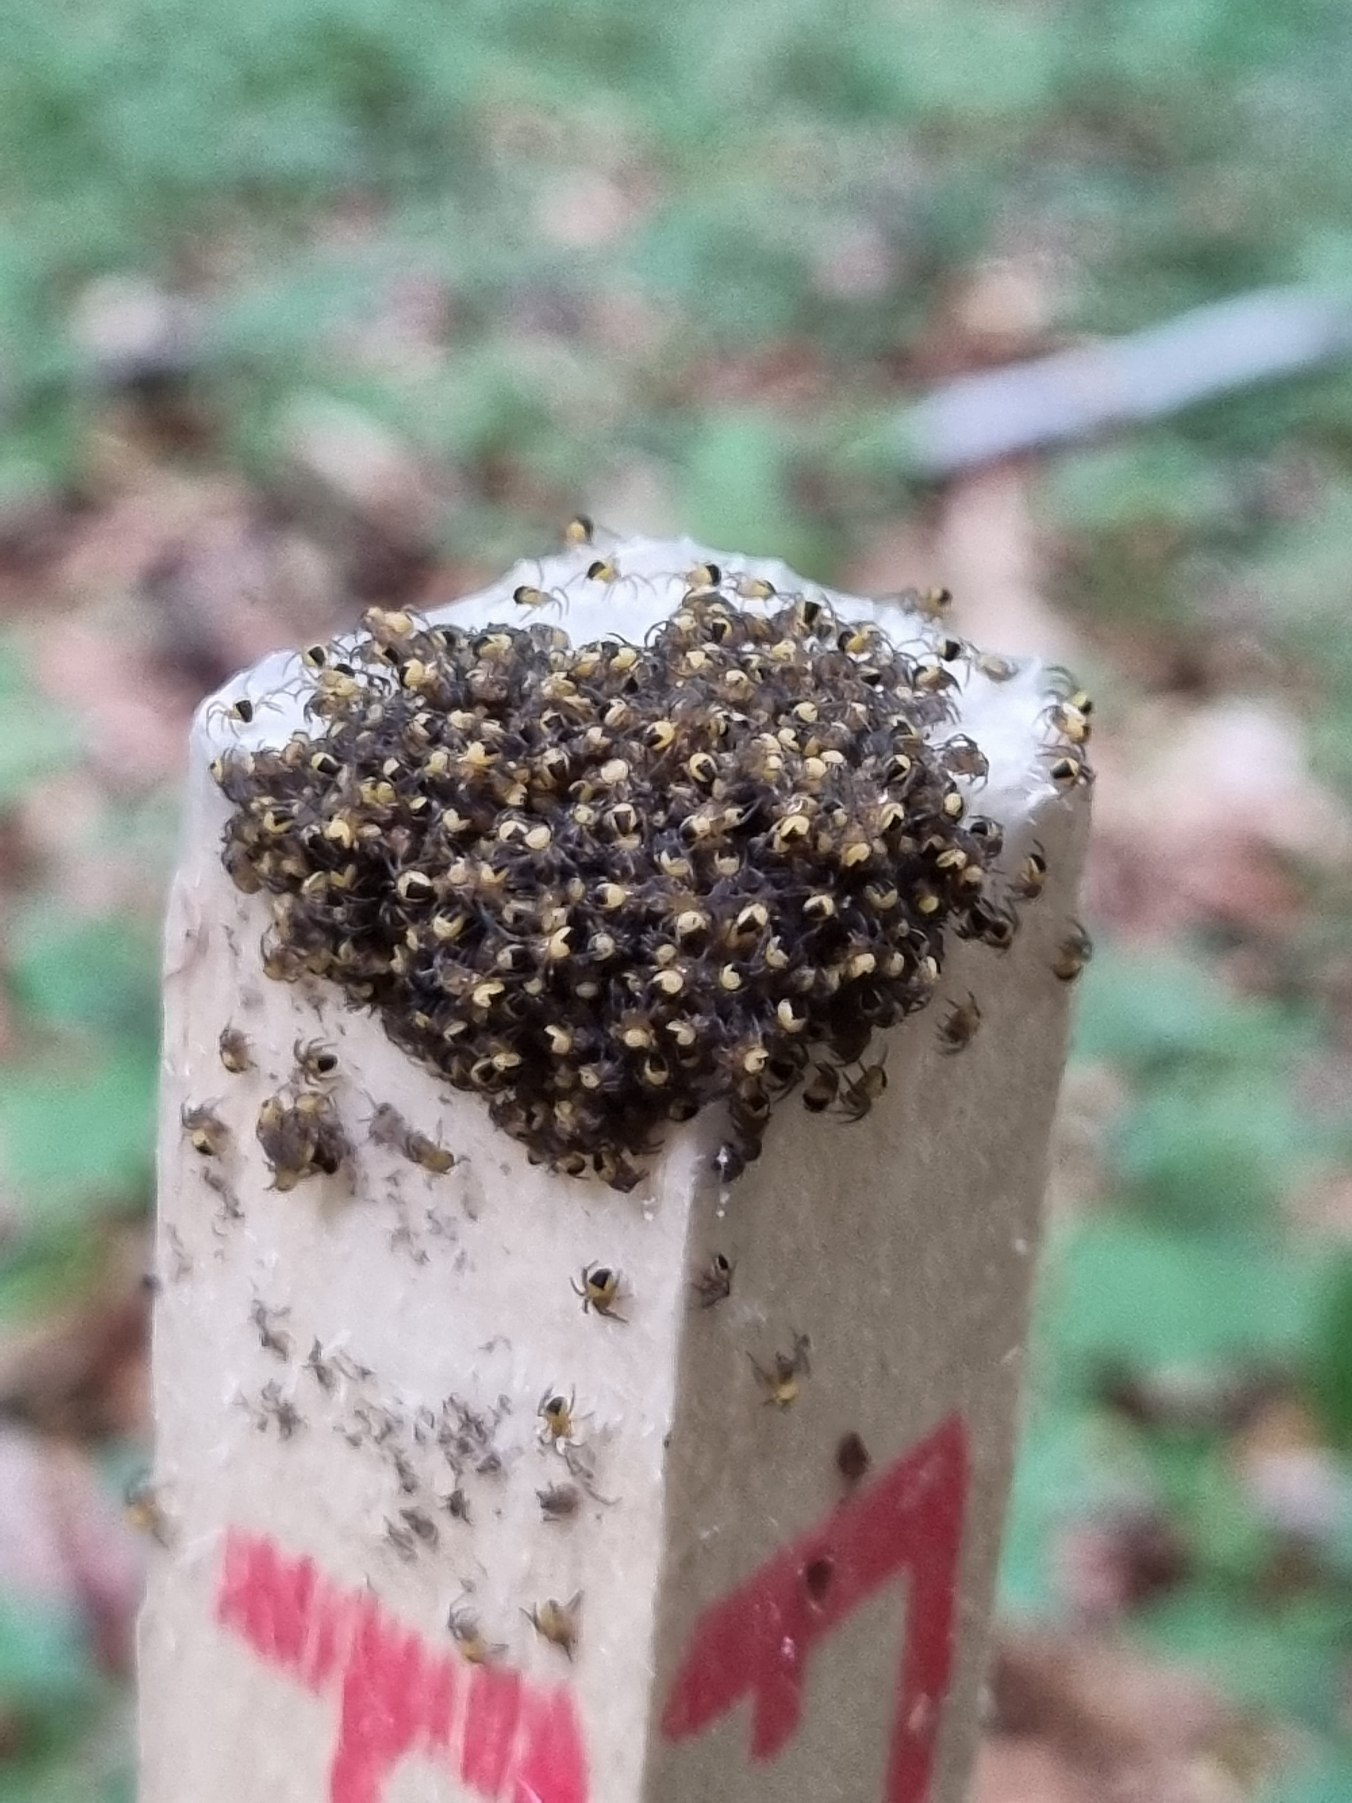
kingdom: Animalia
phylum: Arthropoda
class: Arachnida
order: Araneae
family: Araneidae
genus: Araneus
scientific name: Araneus diadematus
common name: Korsedderkop
